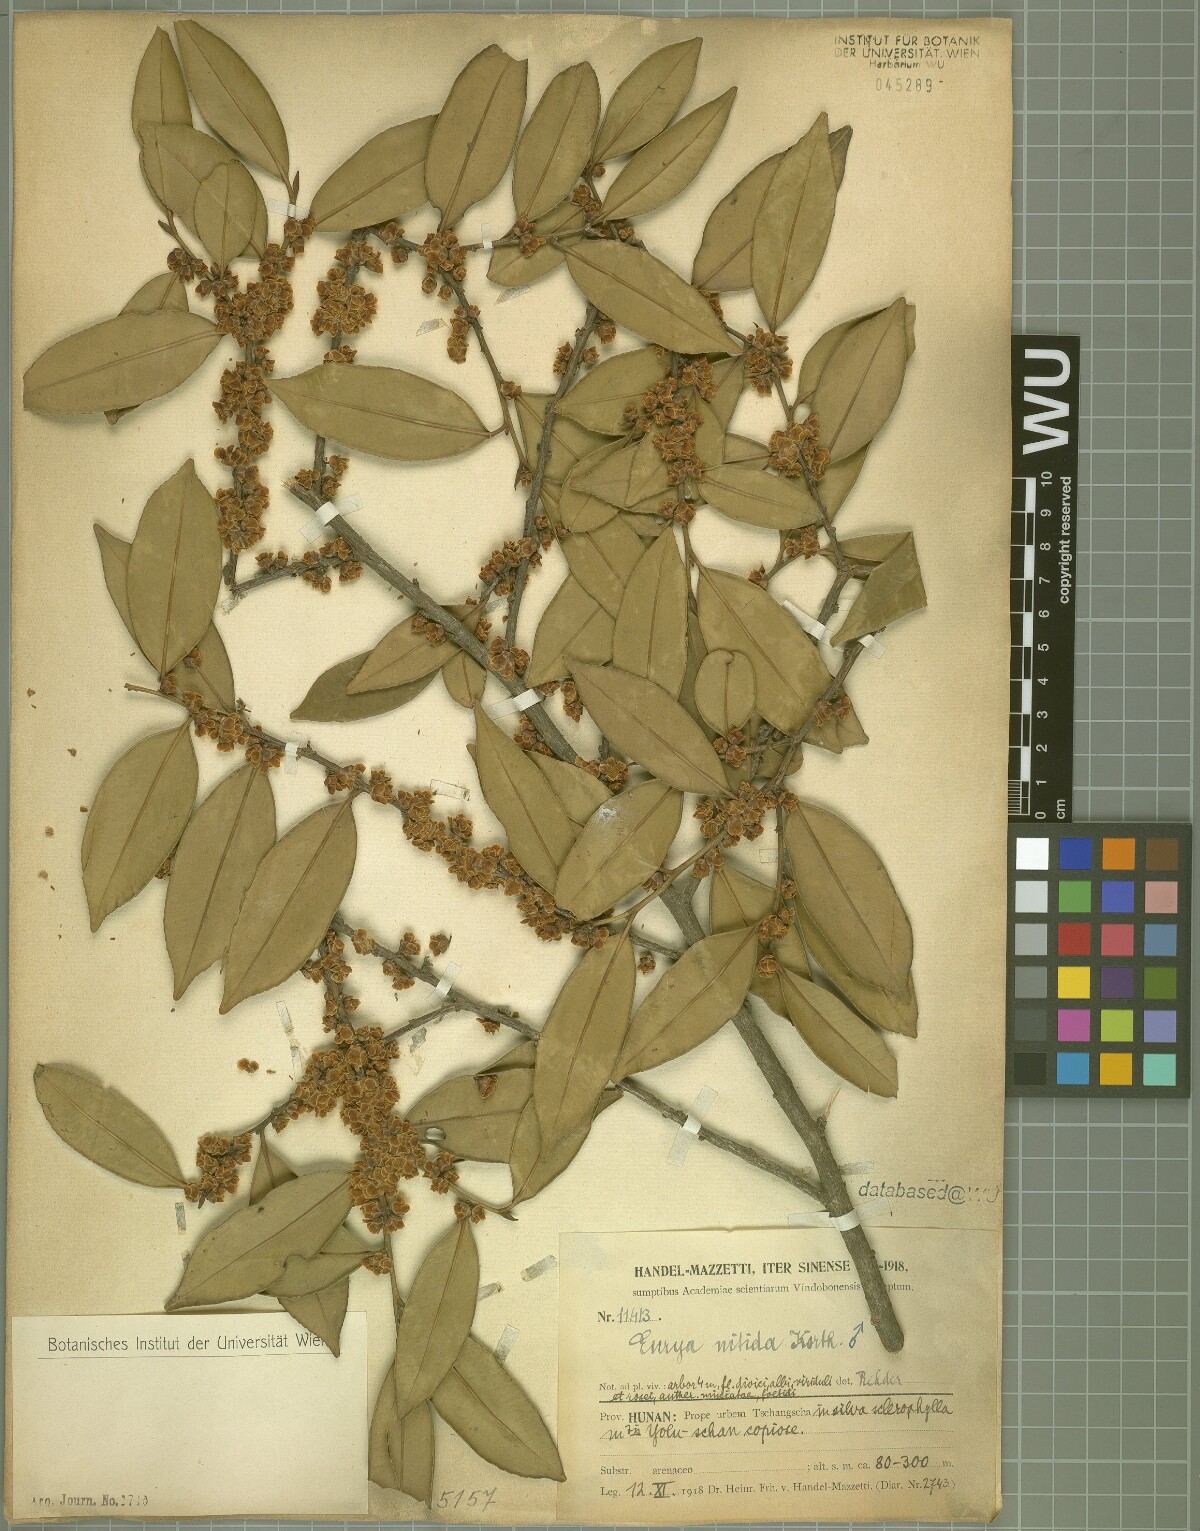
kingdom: Plantae
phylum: Tracheophyta
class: Magnoliopsida
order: Ericales
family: Pentaphylacaceae
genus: Eurya
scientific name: Eurya nitida
